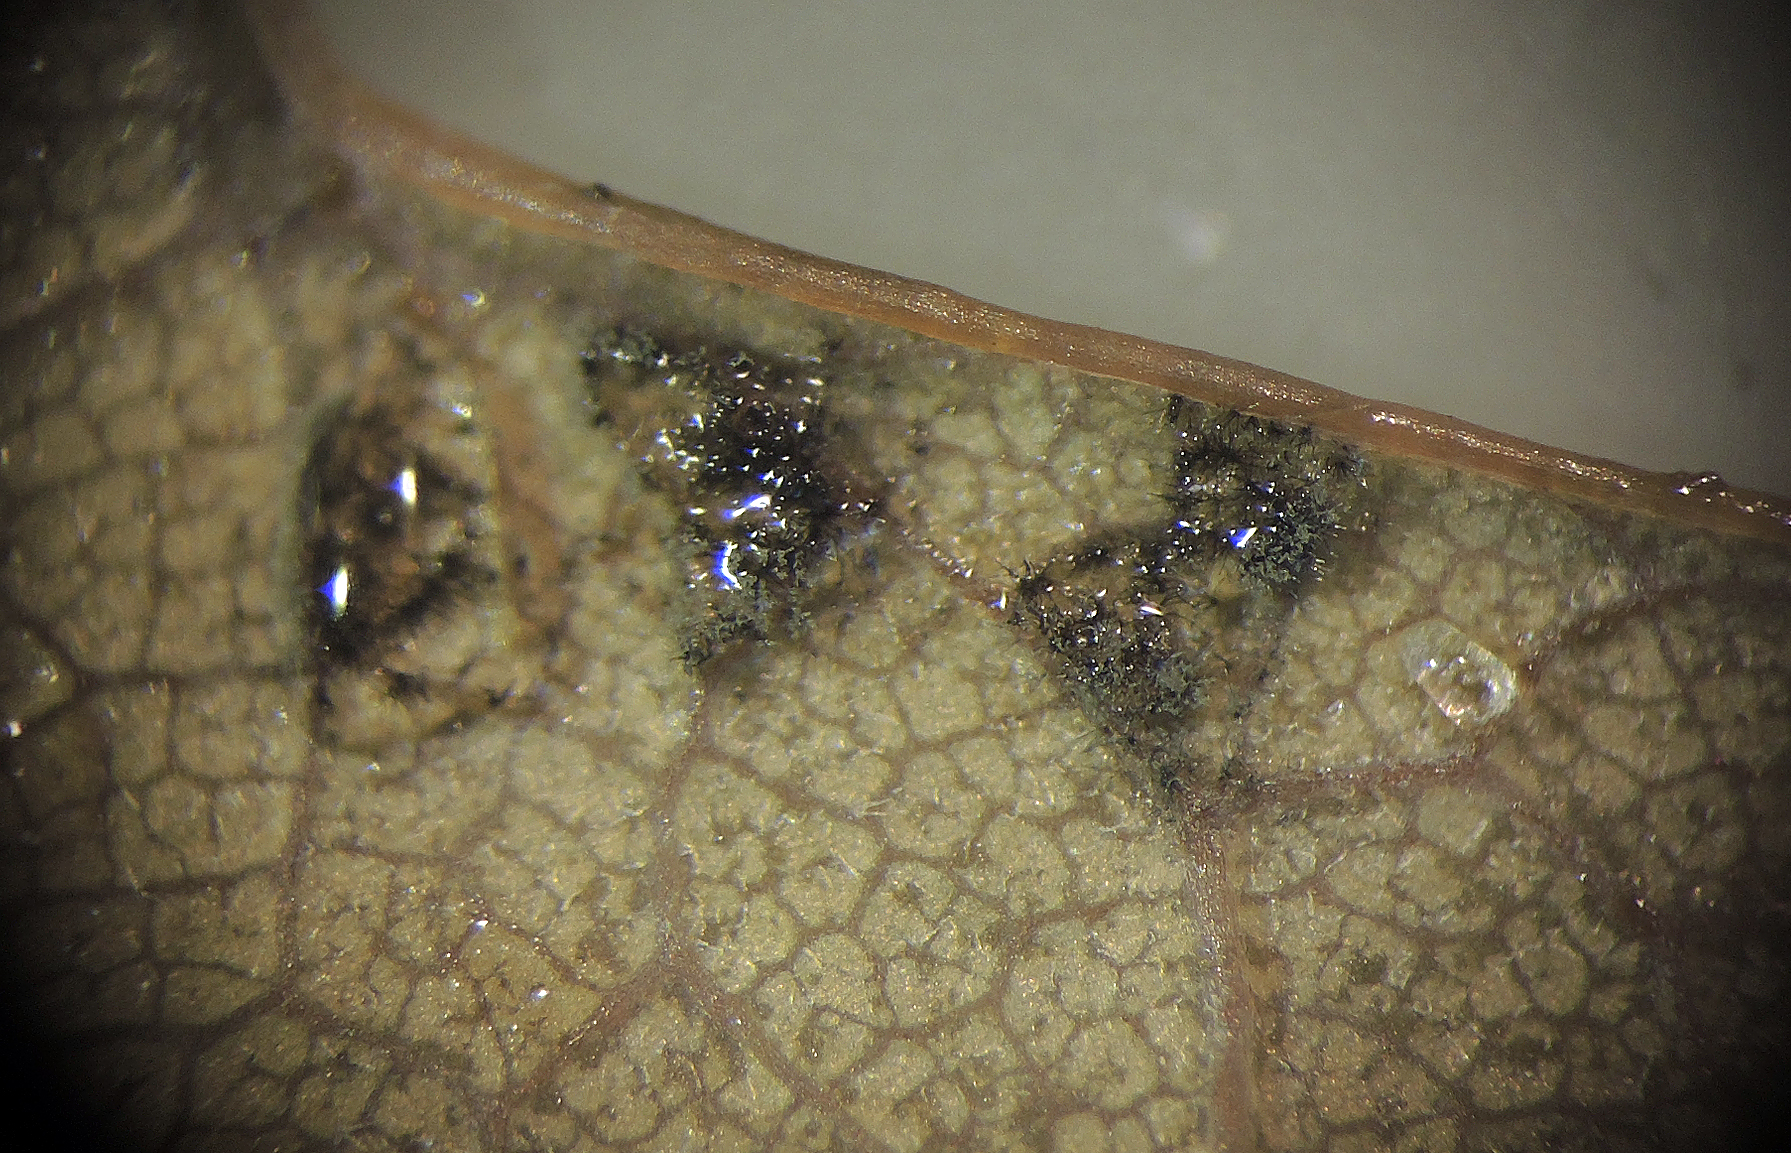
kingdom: Fungi
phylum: Ascomycota
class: Dothideomycetes
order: Capnodiales
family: Cladosporiaceae
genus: Cladosporium
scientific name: Cladosporium
